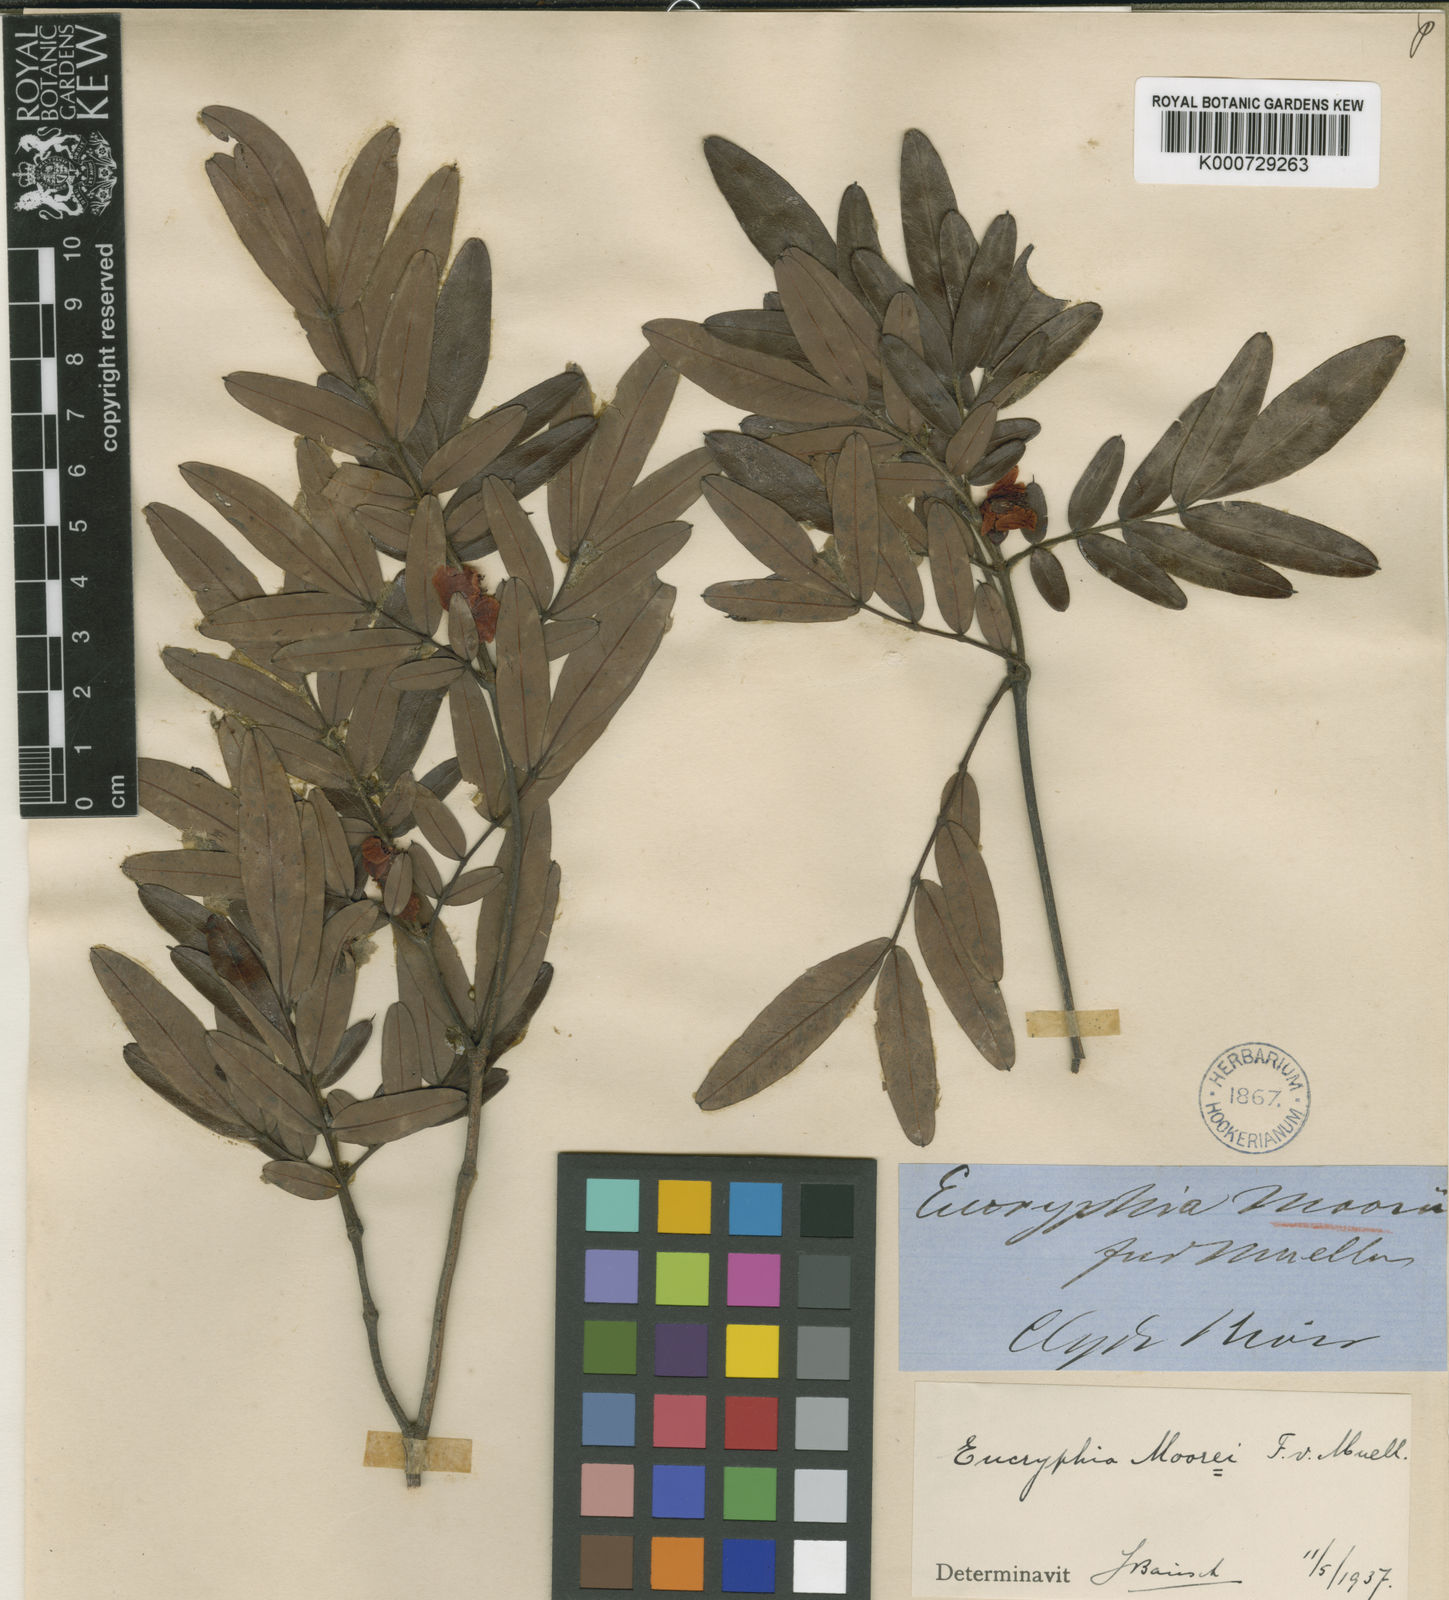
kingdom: Plantae
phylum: Tracheophyta
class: Magnoliopsida
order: Oxalidales
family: Cunoniaceae
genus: Eucryphia
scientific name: Eucryphia moorei
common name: Acacia-plum
